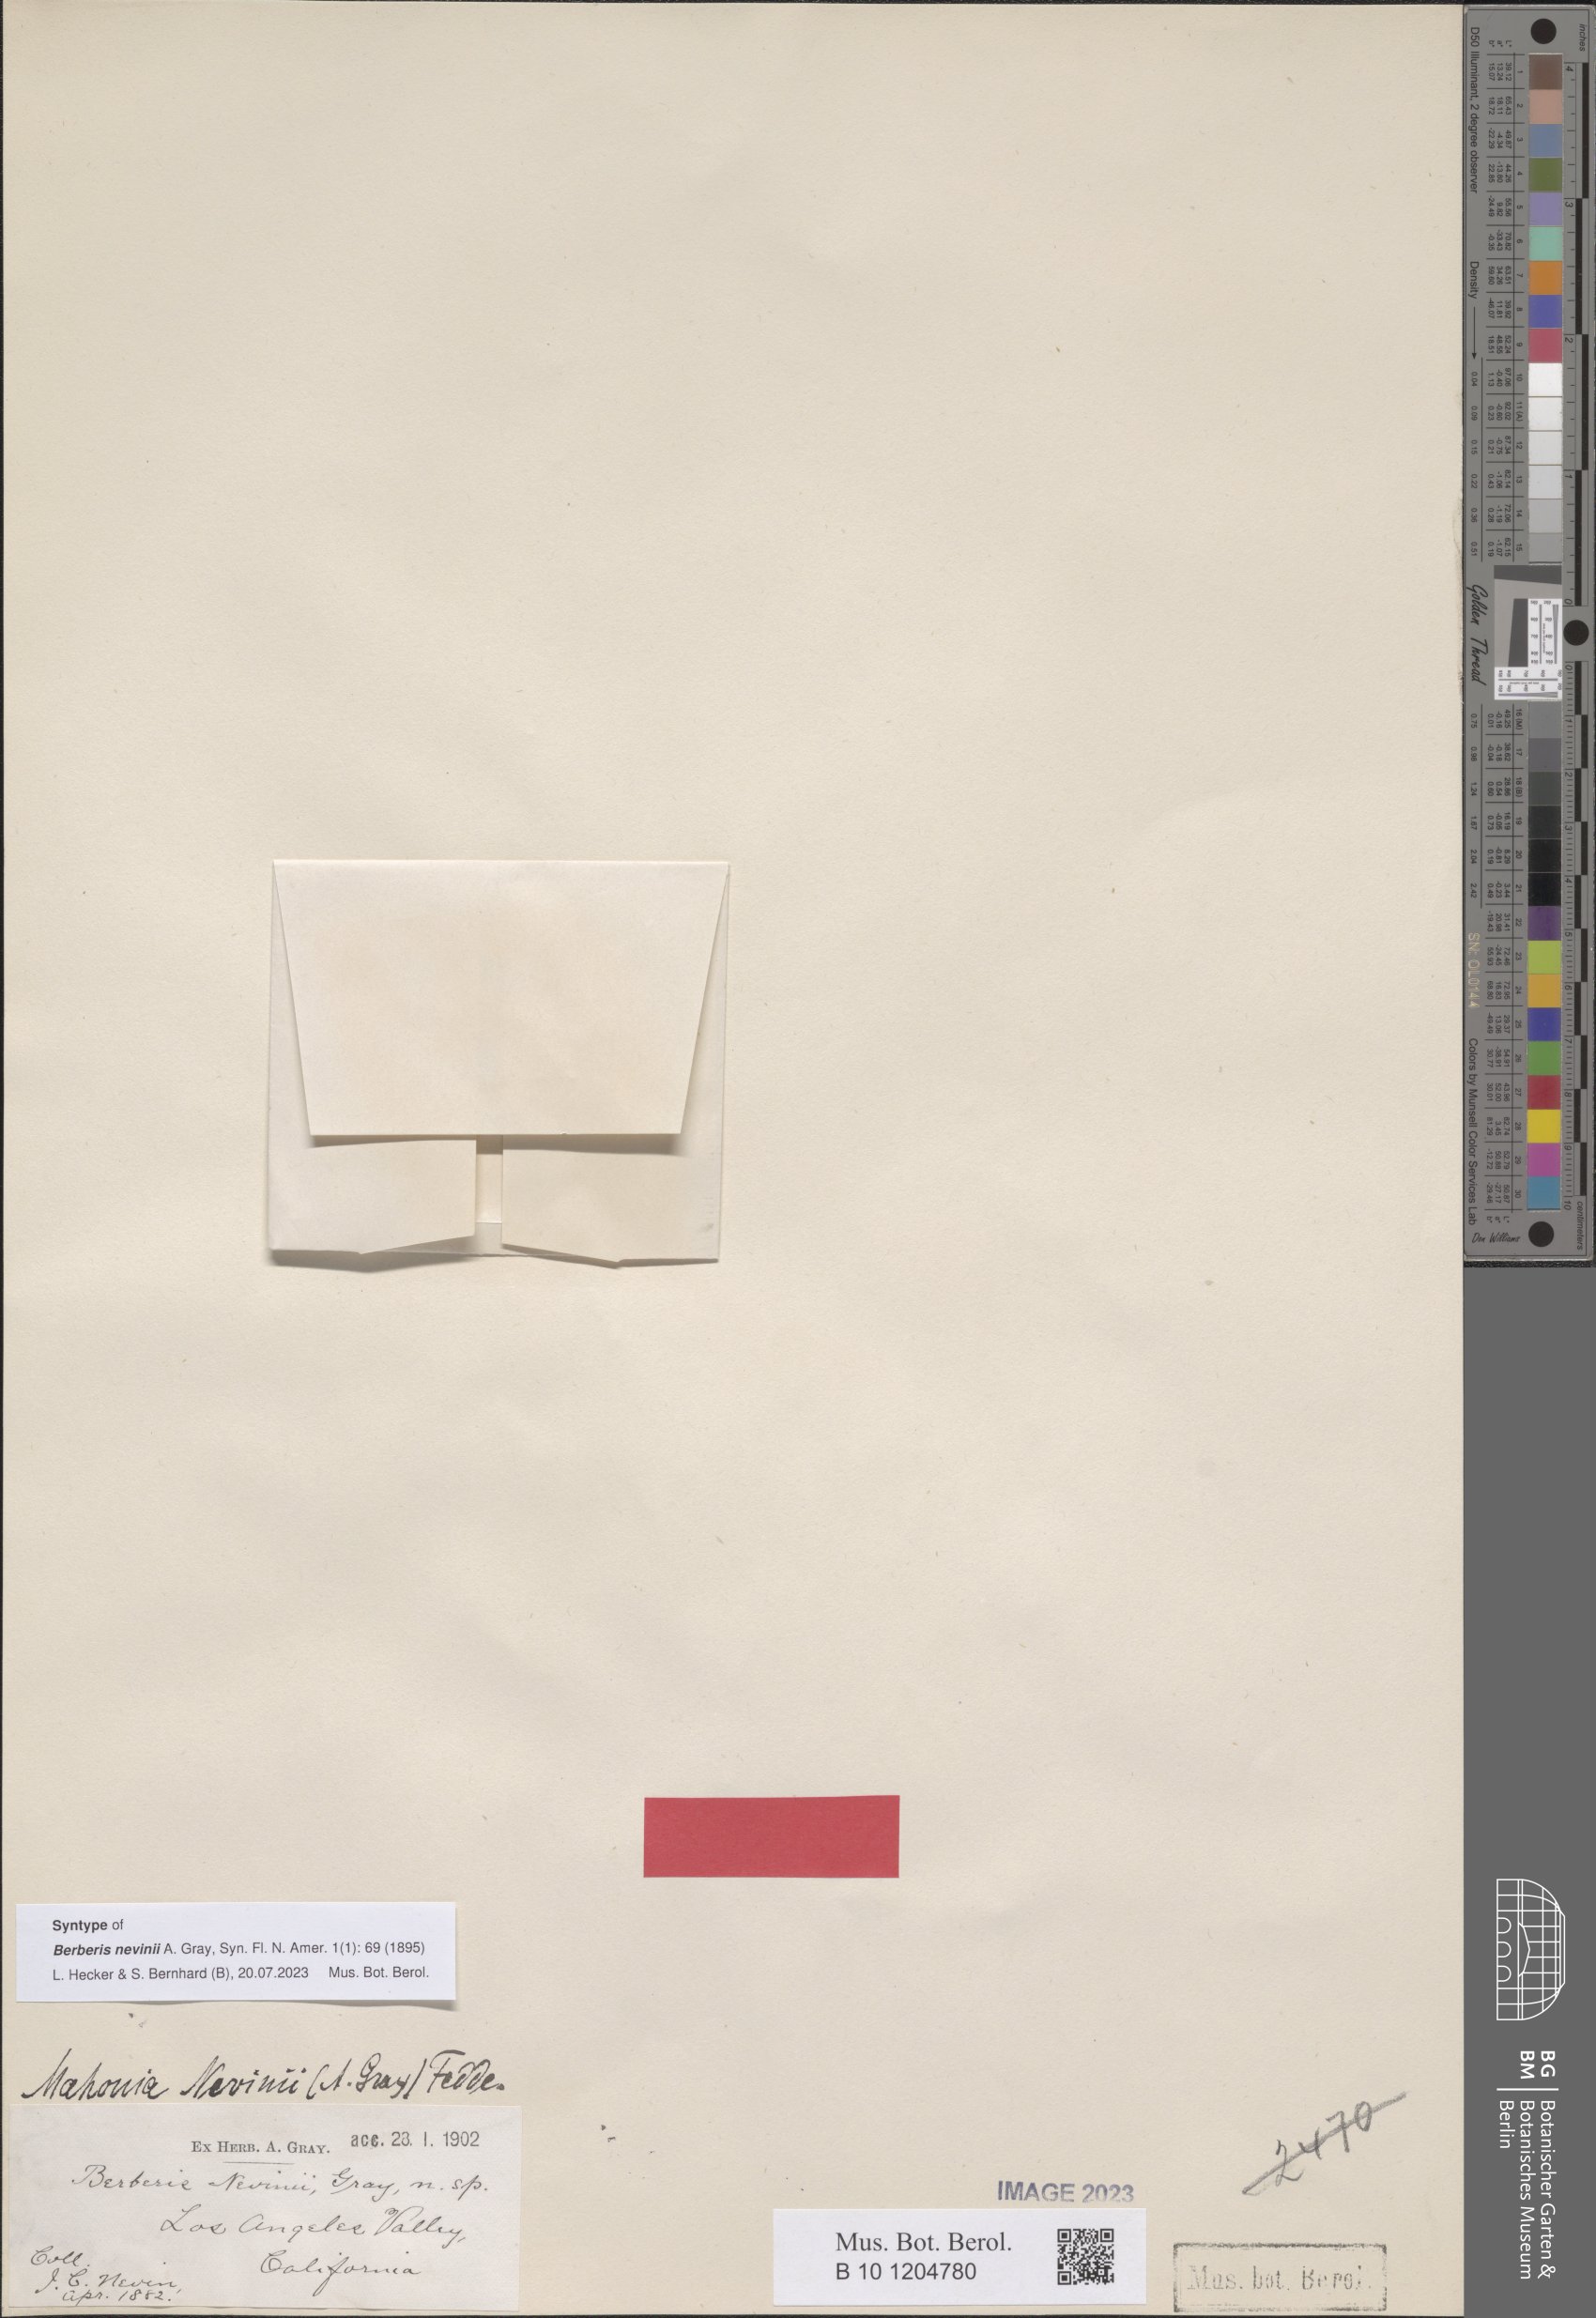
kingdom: Plantae
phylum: Tracheophyta
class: Magnoliopsida
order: Ranunculales
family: Berberidaceae
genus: Alloberberis
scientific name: Alloberberis nevinii
